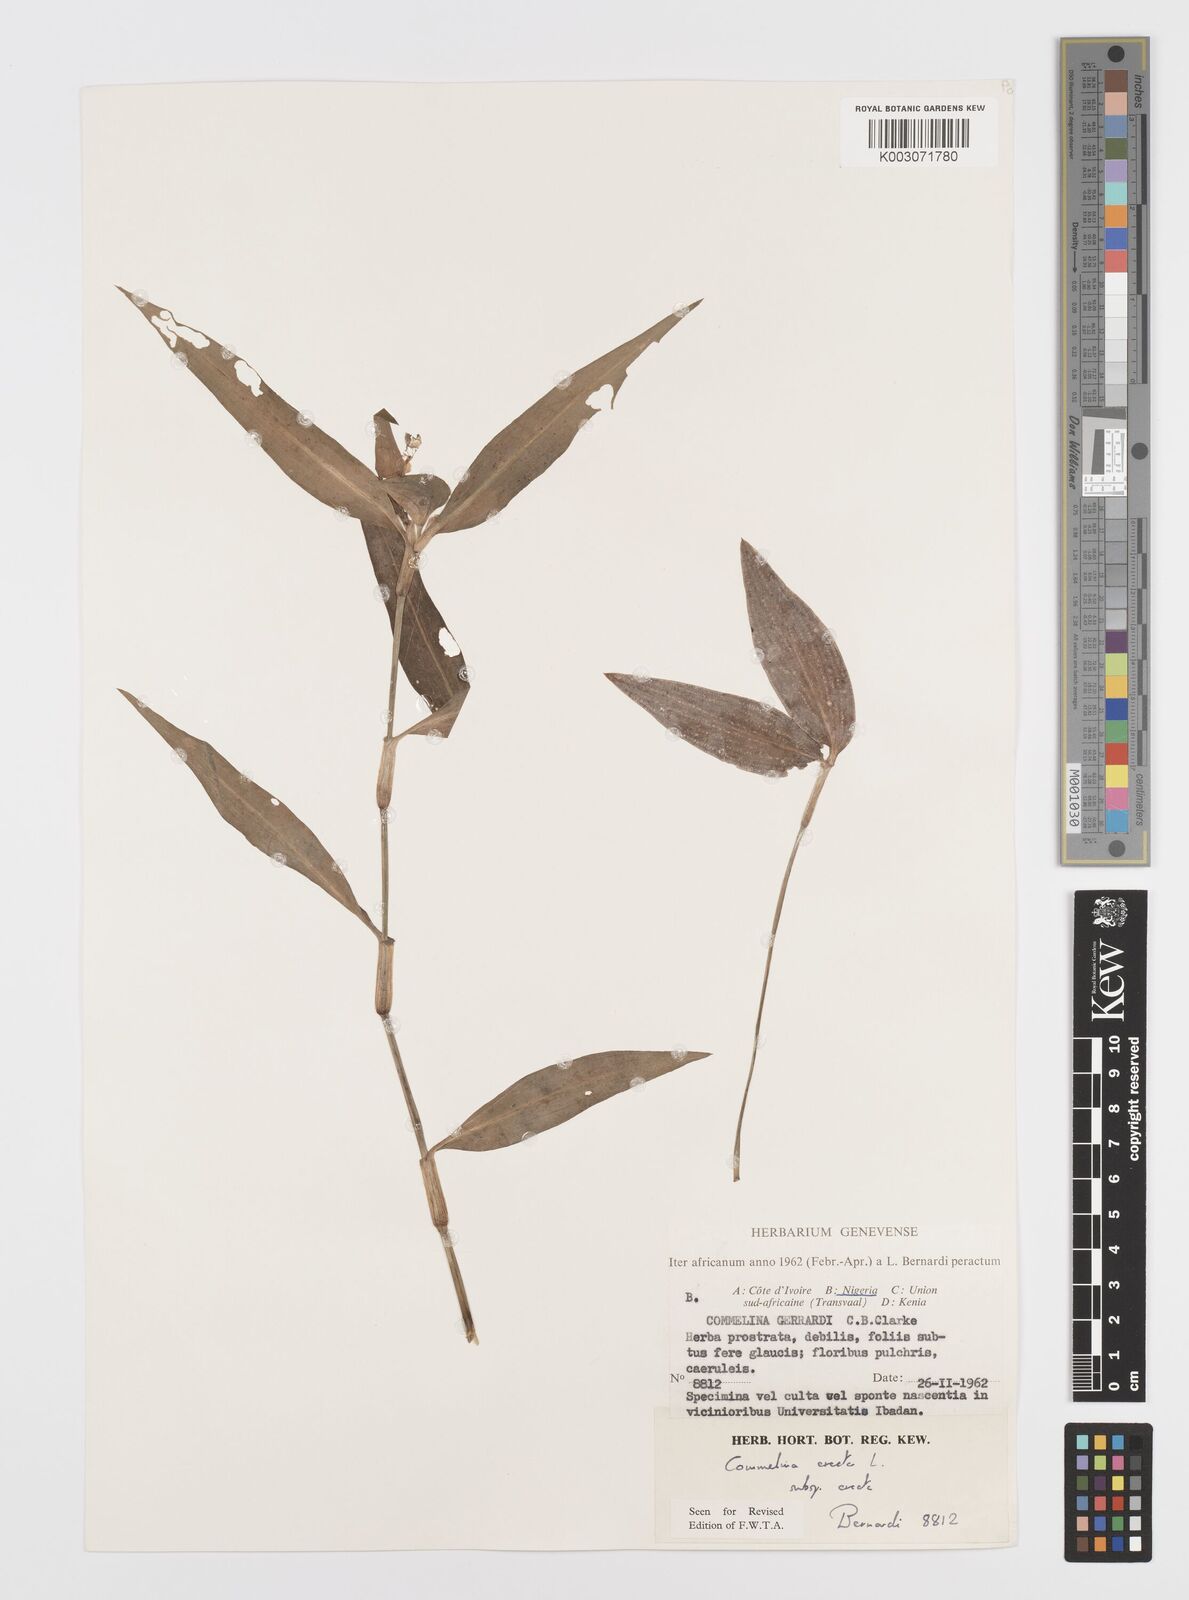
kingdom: Plantae
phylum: Tracheophyta
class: Liliopsida
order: Commelinales
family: Commelinaceae
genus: Commelina
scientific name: Commelina erecta
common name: Blousel blommetjie
